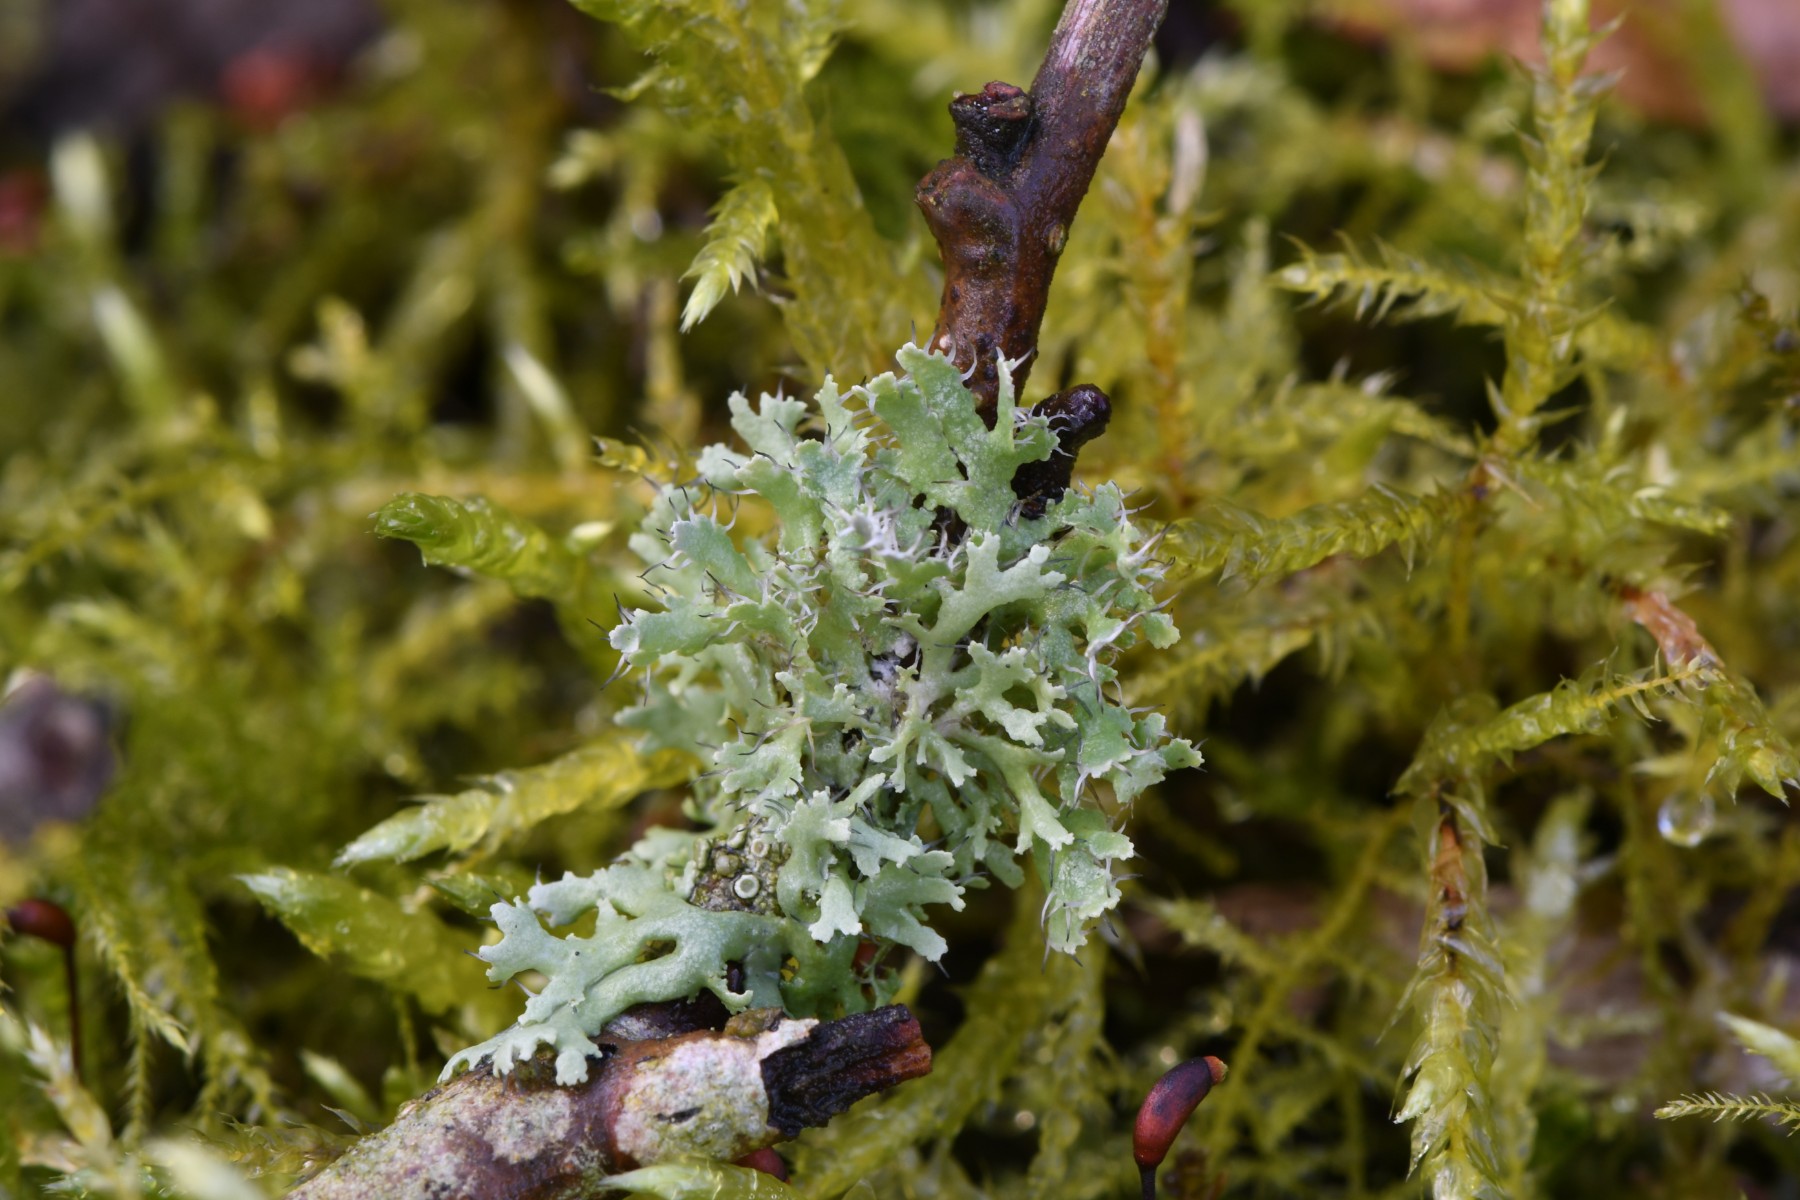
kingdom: Fungi
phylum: Ascomycota
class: Lecanoromycetes
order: Caliciales
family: Physciaceae
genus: Physcia
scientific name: Physcia tenella
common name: spæd rosetlav
